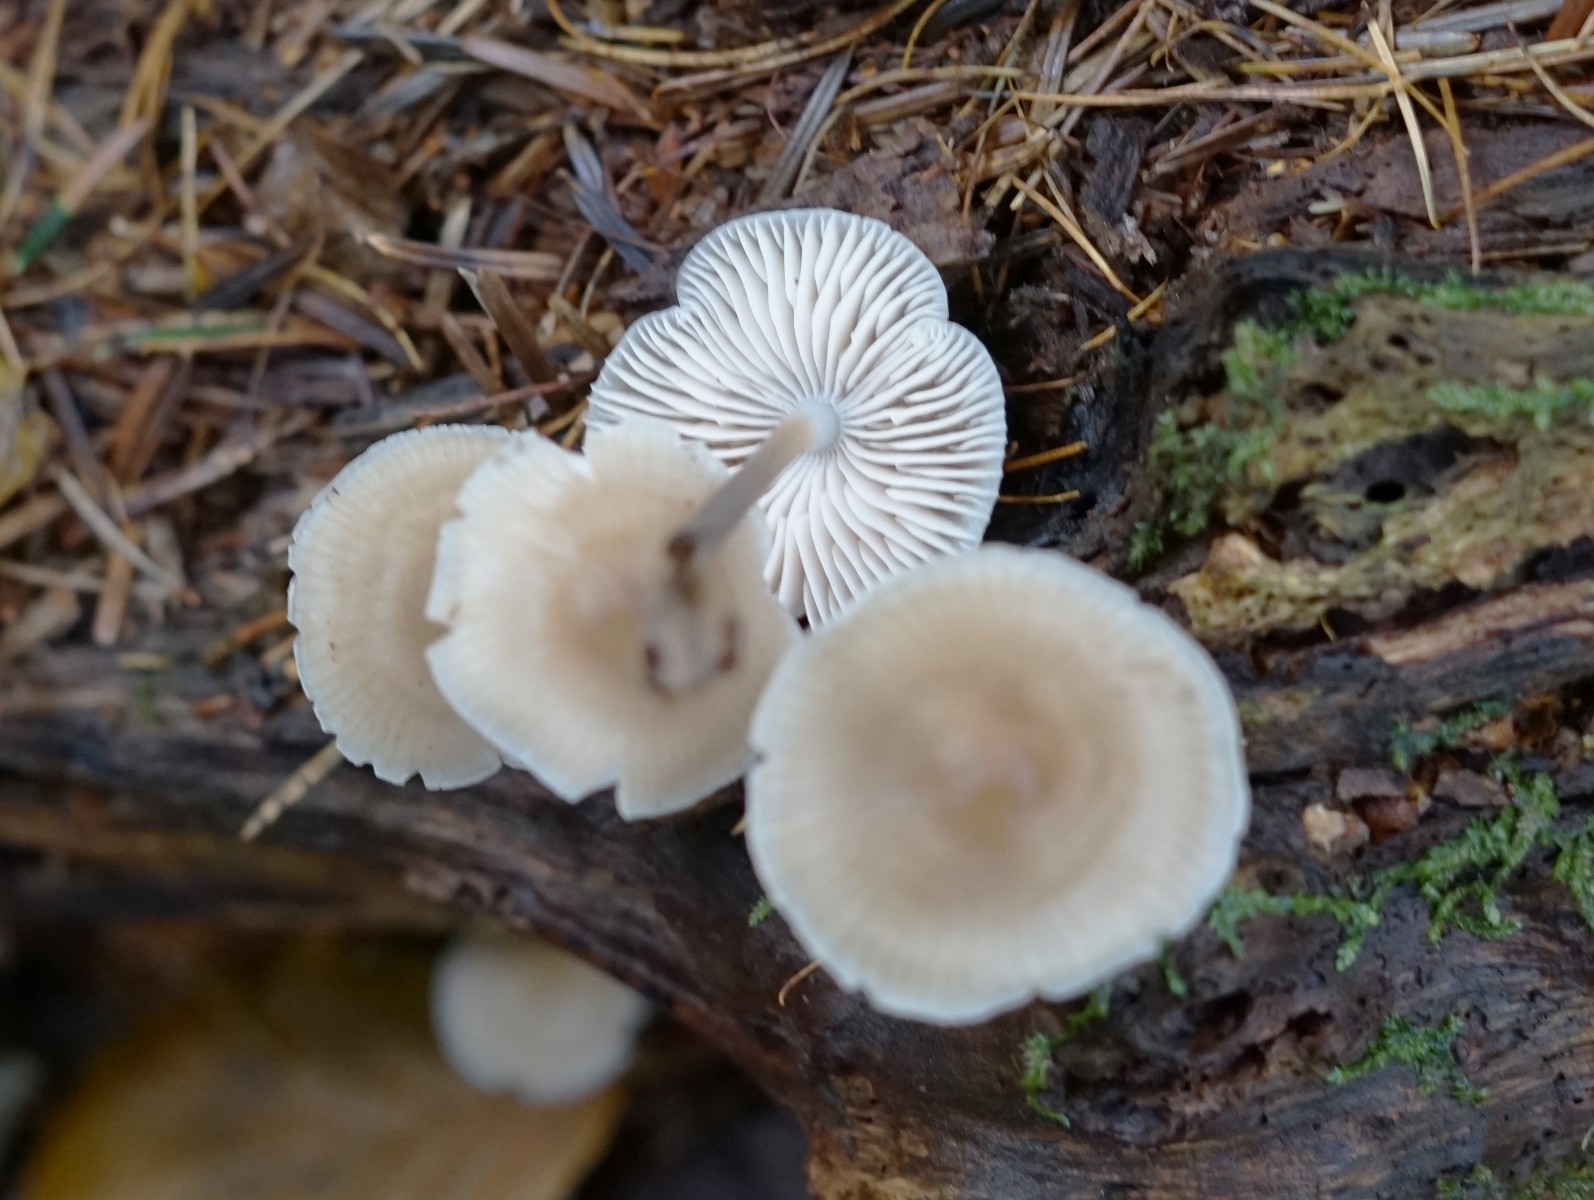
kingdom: Fungi
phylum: Basidiomycota
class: Agaricomycetes
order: Agaricales
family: Mycenaceae
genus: Mycena
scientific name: Mycena galericulata
